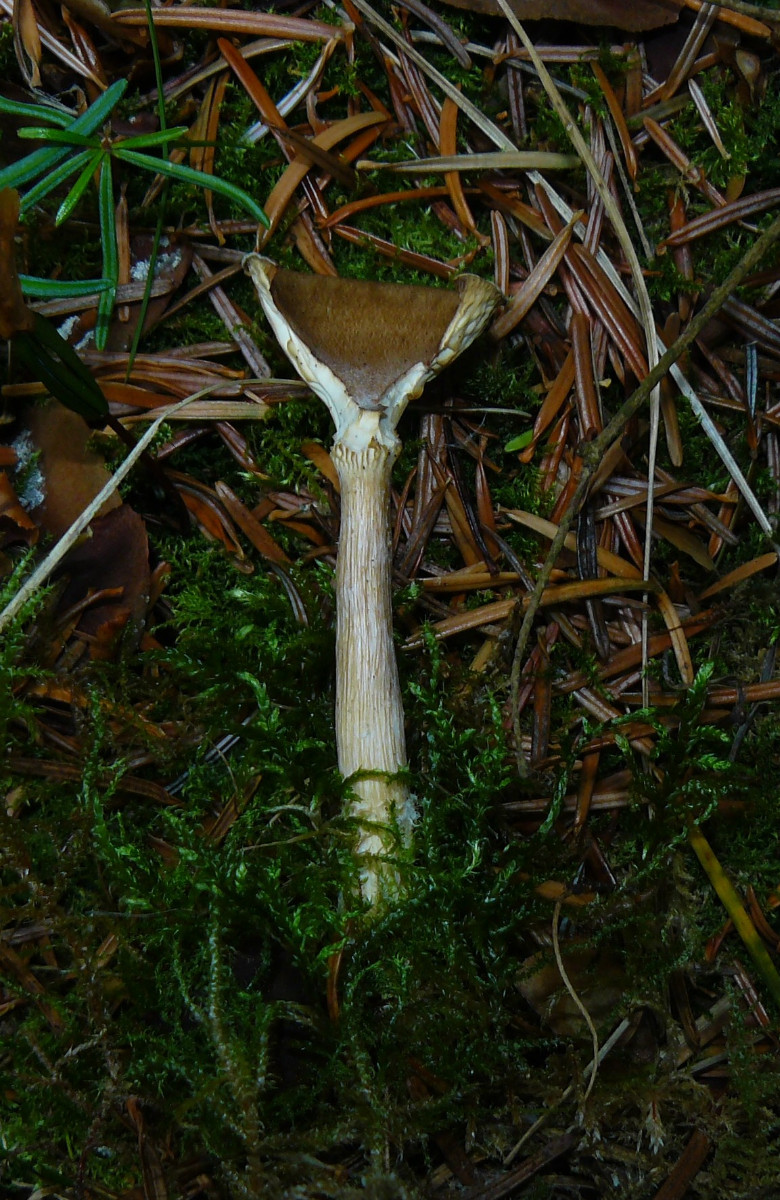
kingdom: Fungi
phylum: Basidiomycota
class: Agaricomycetes
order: Agaricales
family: Tricholomataceae
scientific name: Tricholomataceae
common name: ridderhatfamilien
